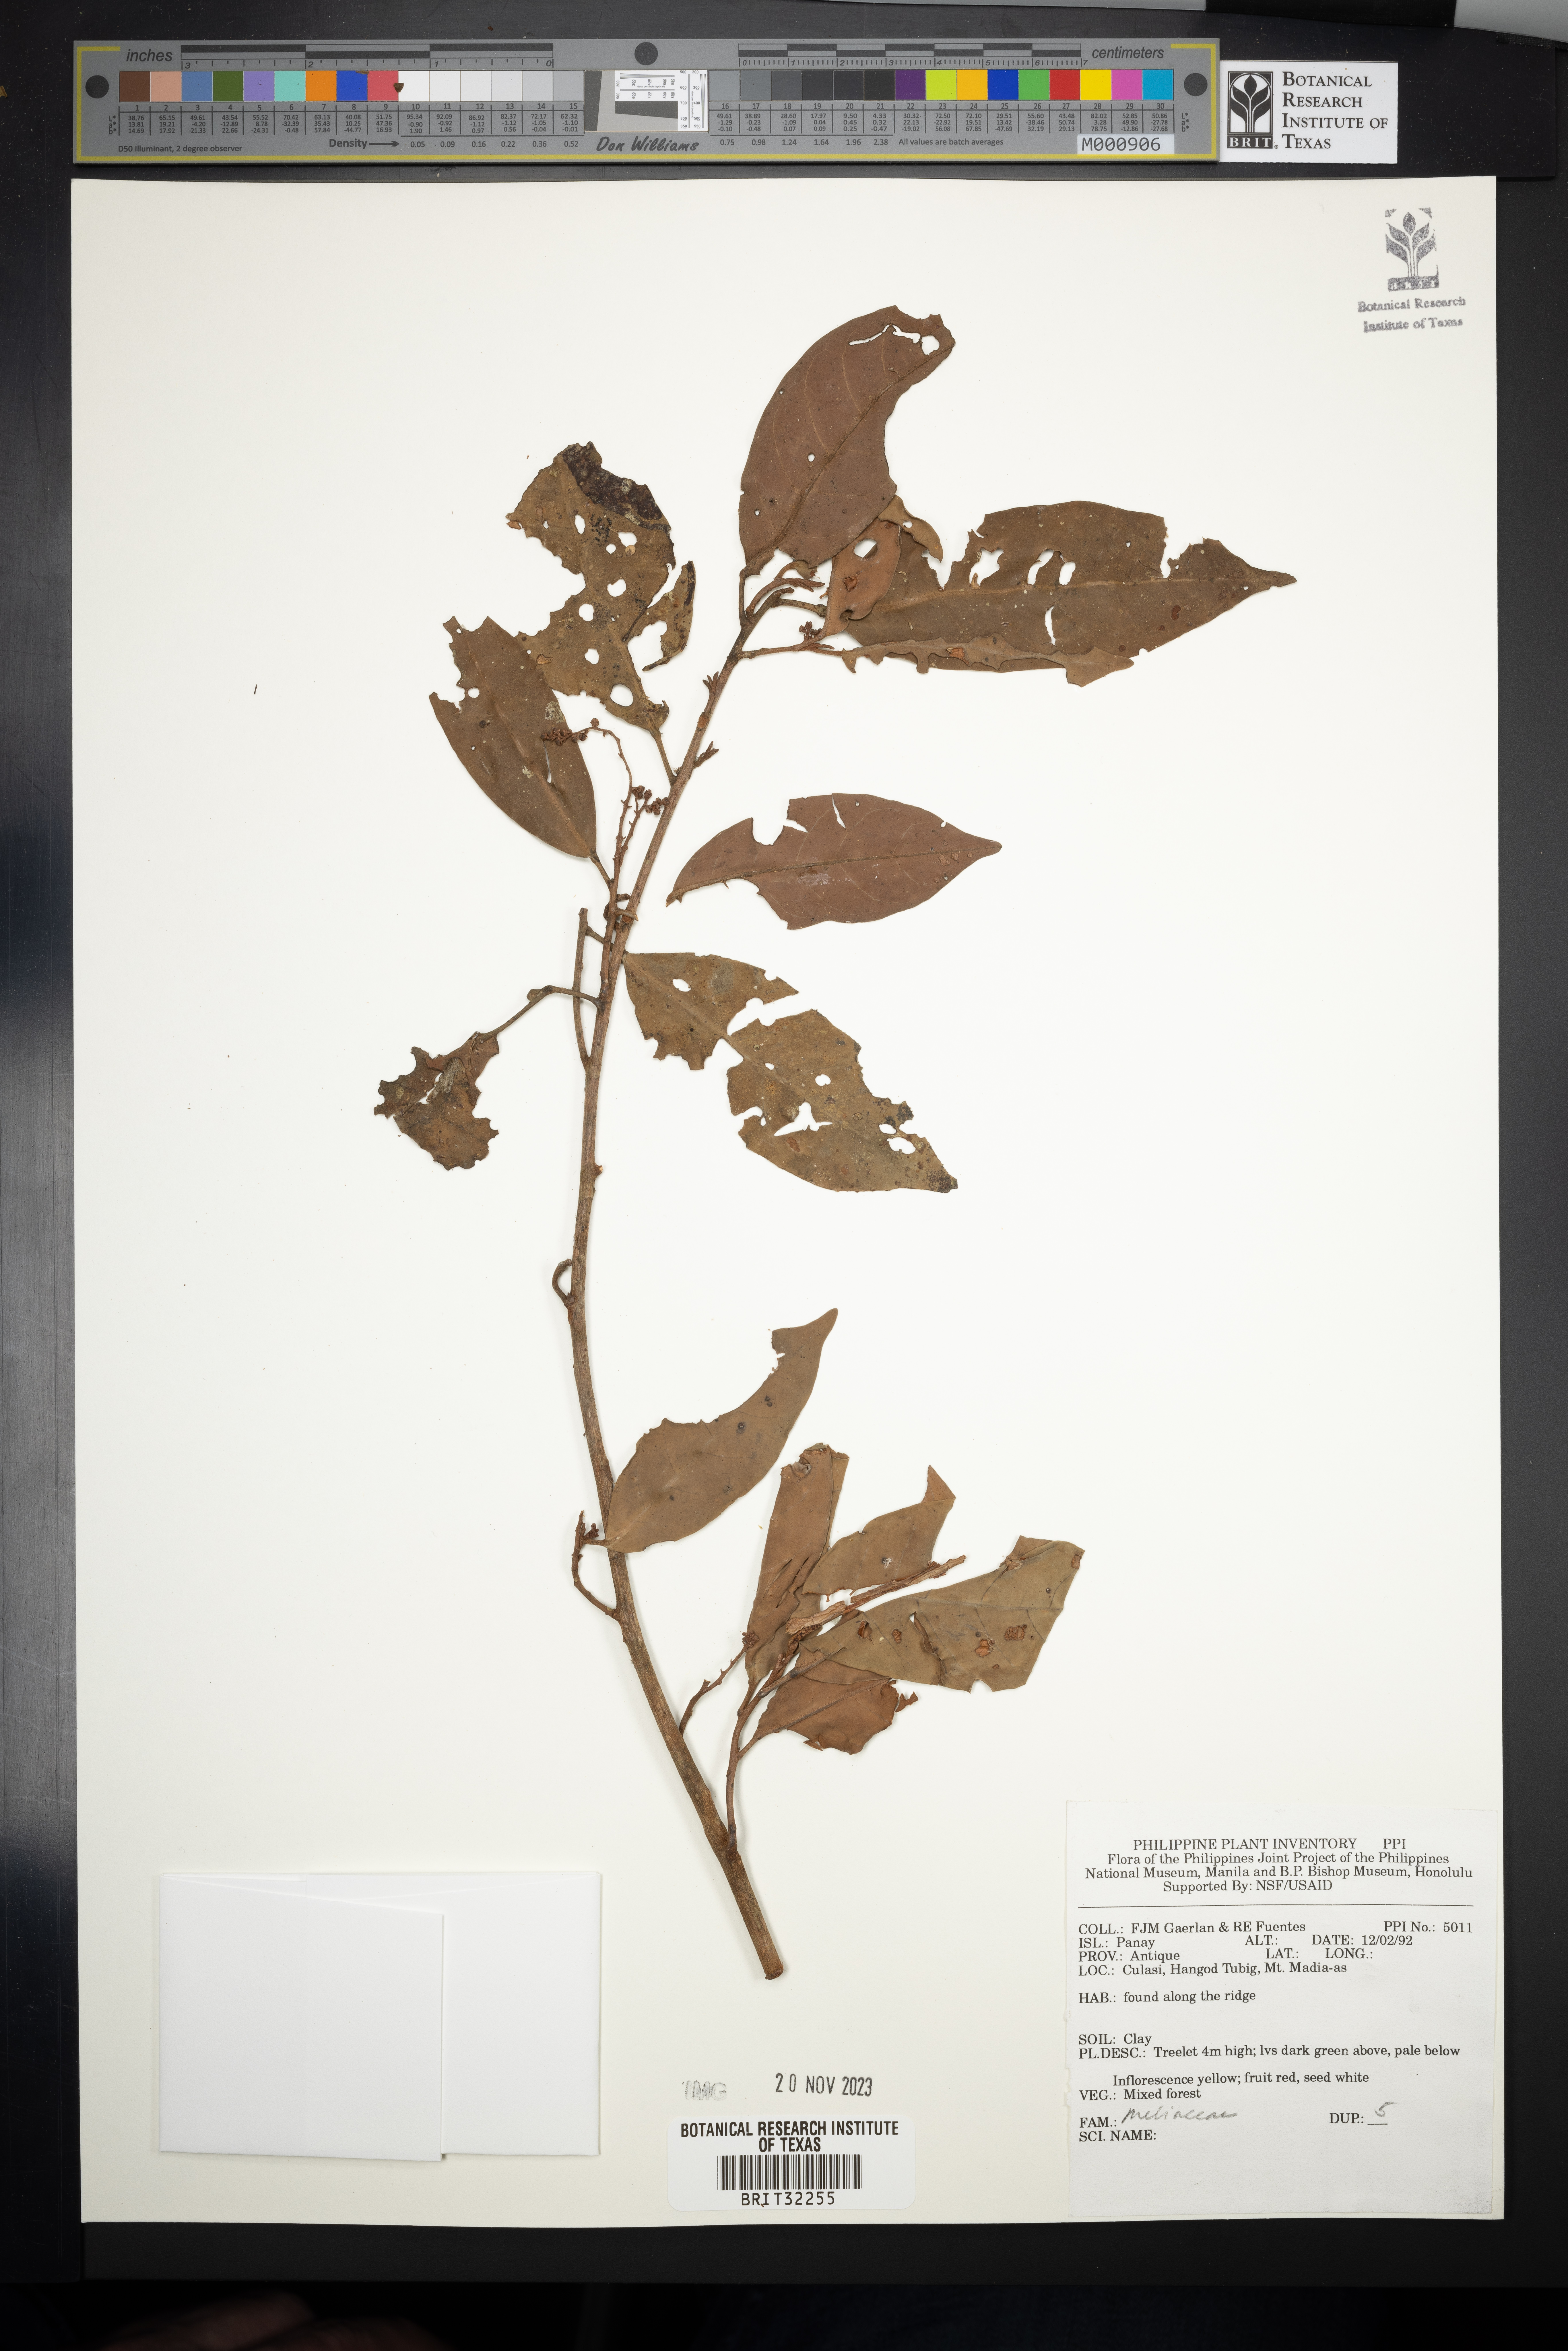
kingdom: Plantae
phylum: Tracheophyta
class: Magnoliopsida
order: Sapindales
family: Meliaceae
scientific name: Meliaceae
